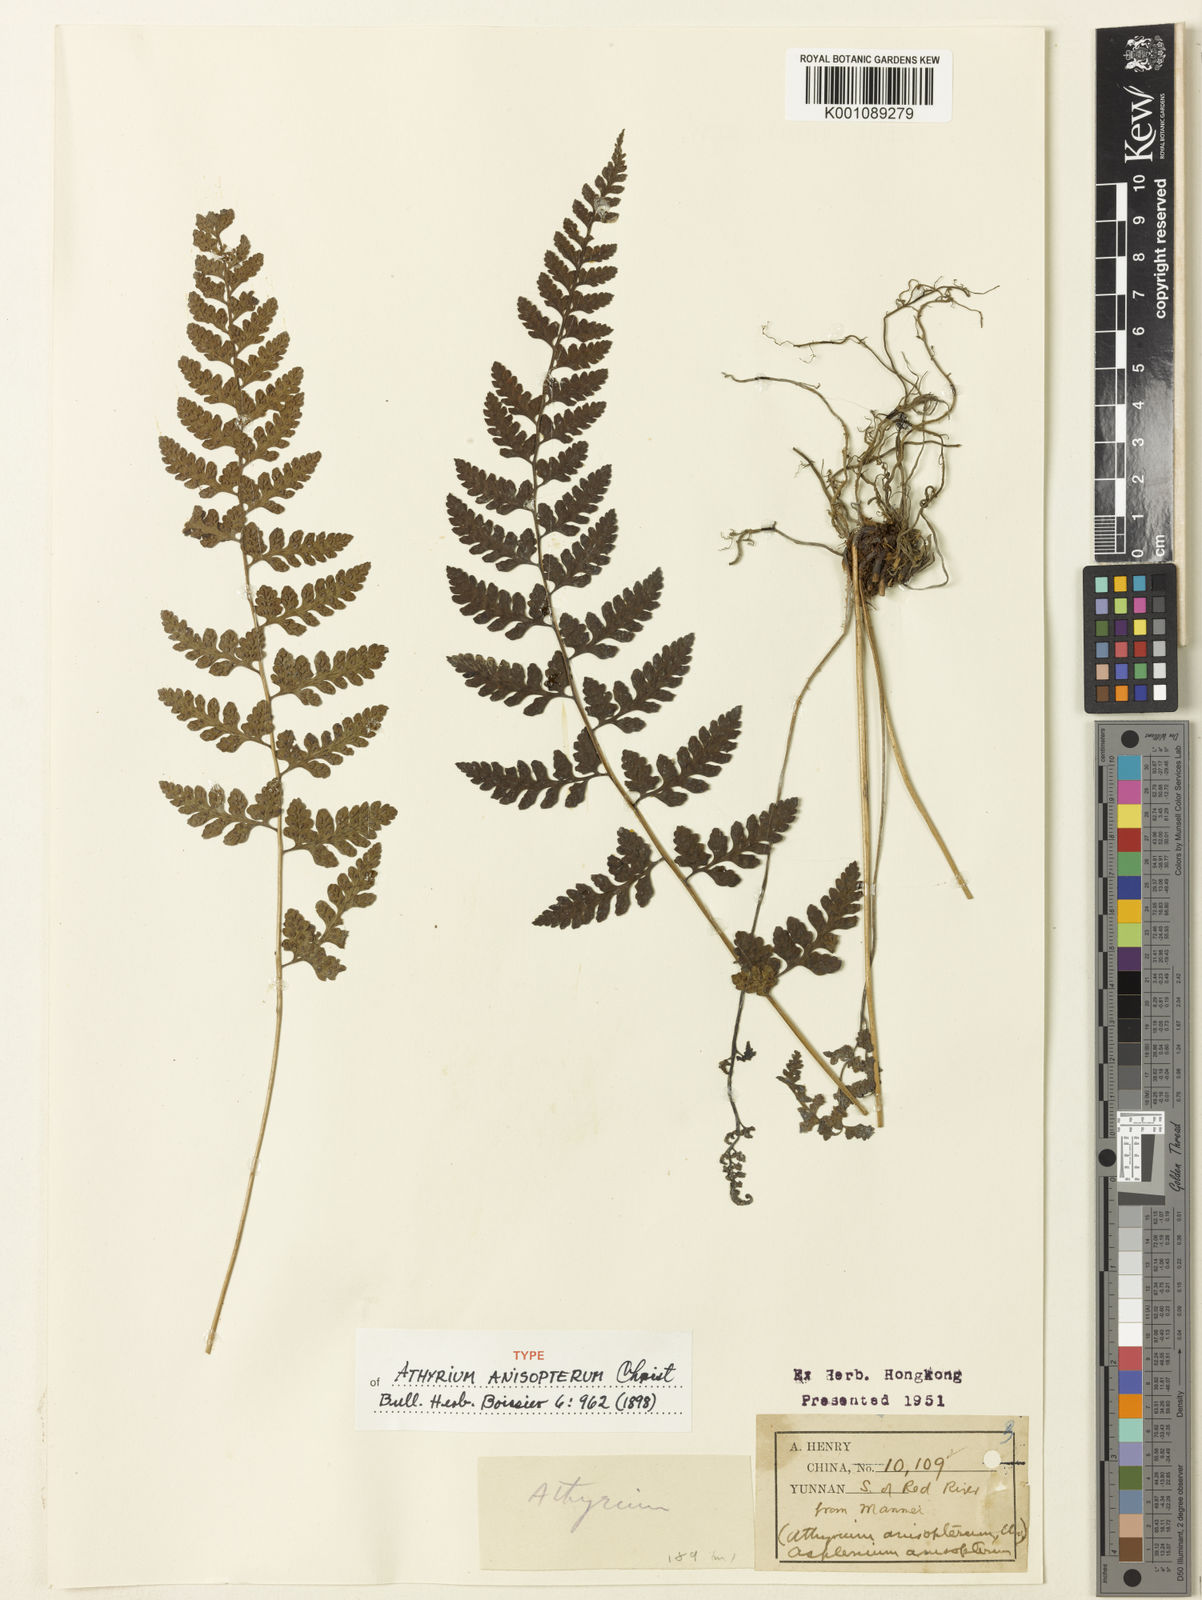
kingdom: Plantae
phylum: Tracheophyta
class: Polypodiopsida
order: Polypodiales
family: Athyriaceae
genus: Athyrium
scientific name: Athyrium anisopterum
